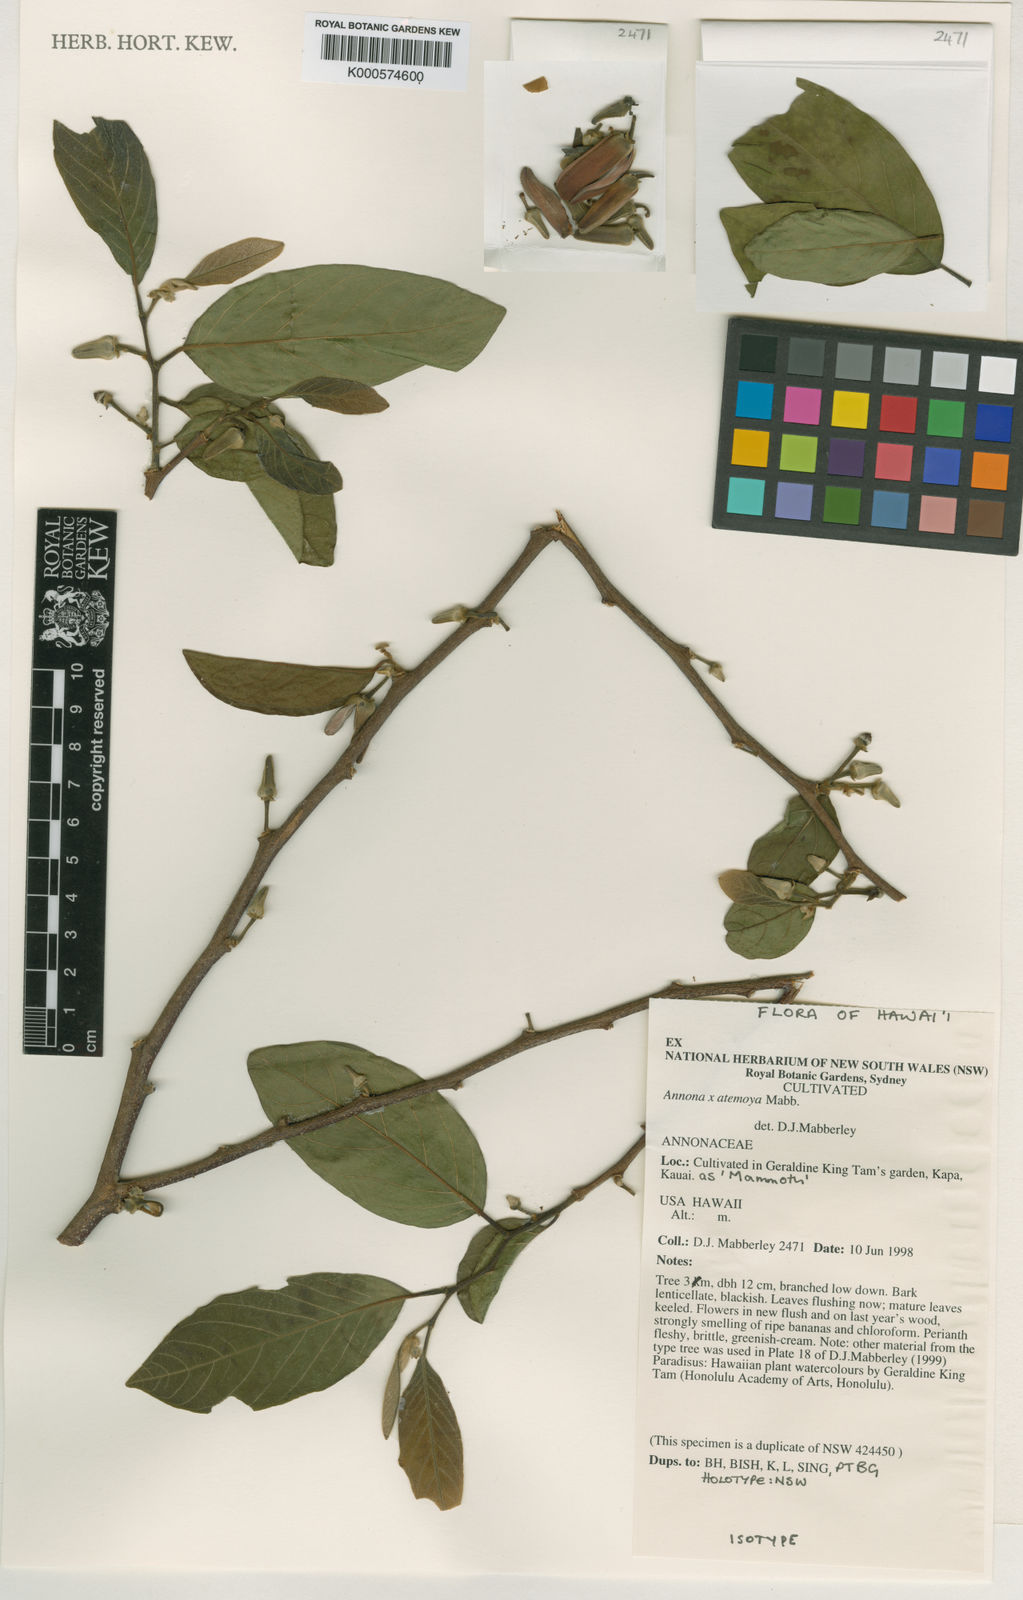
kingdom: Plantae
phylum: Tracheophyta
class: Magnoliopsida
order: Magnoliales
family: Annonaceae
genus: Annona
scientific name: Annona atemoya
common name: Atemoya
